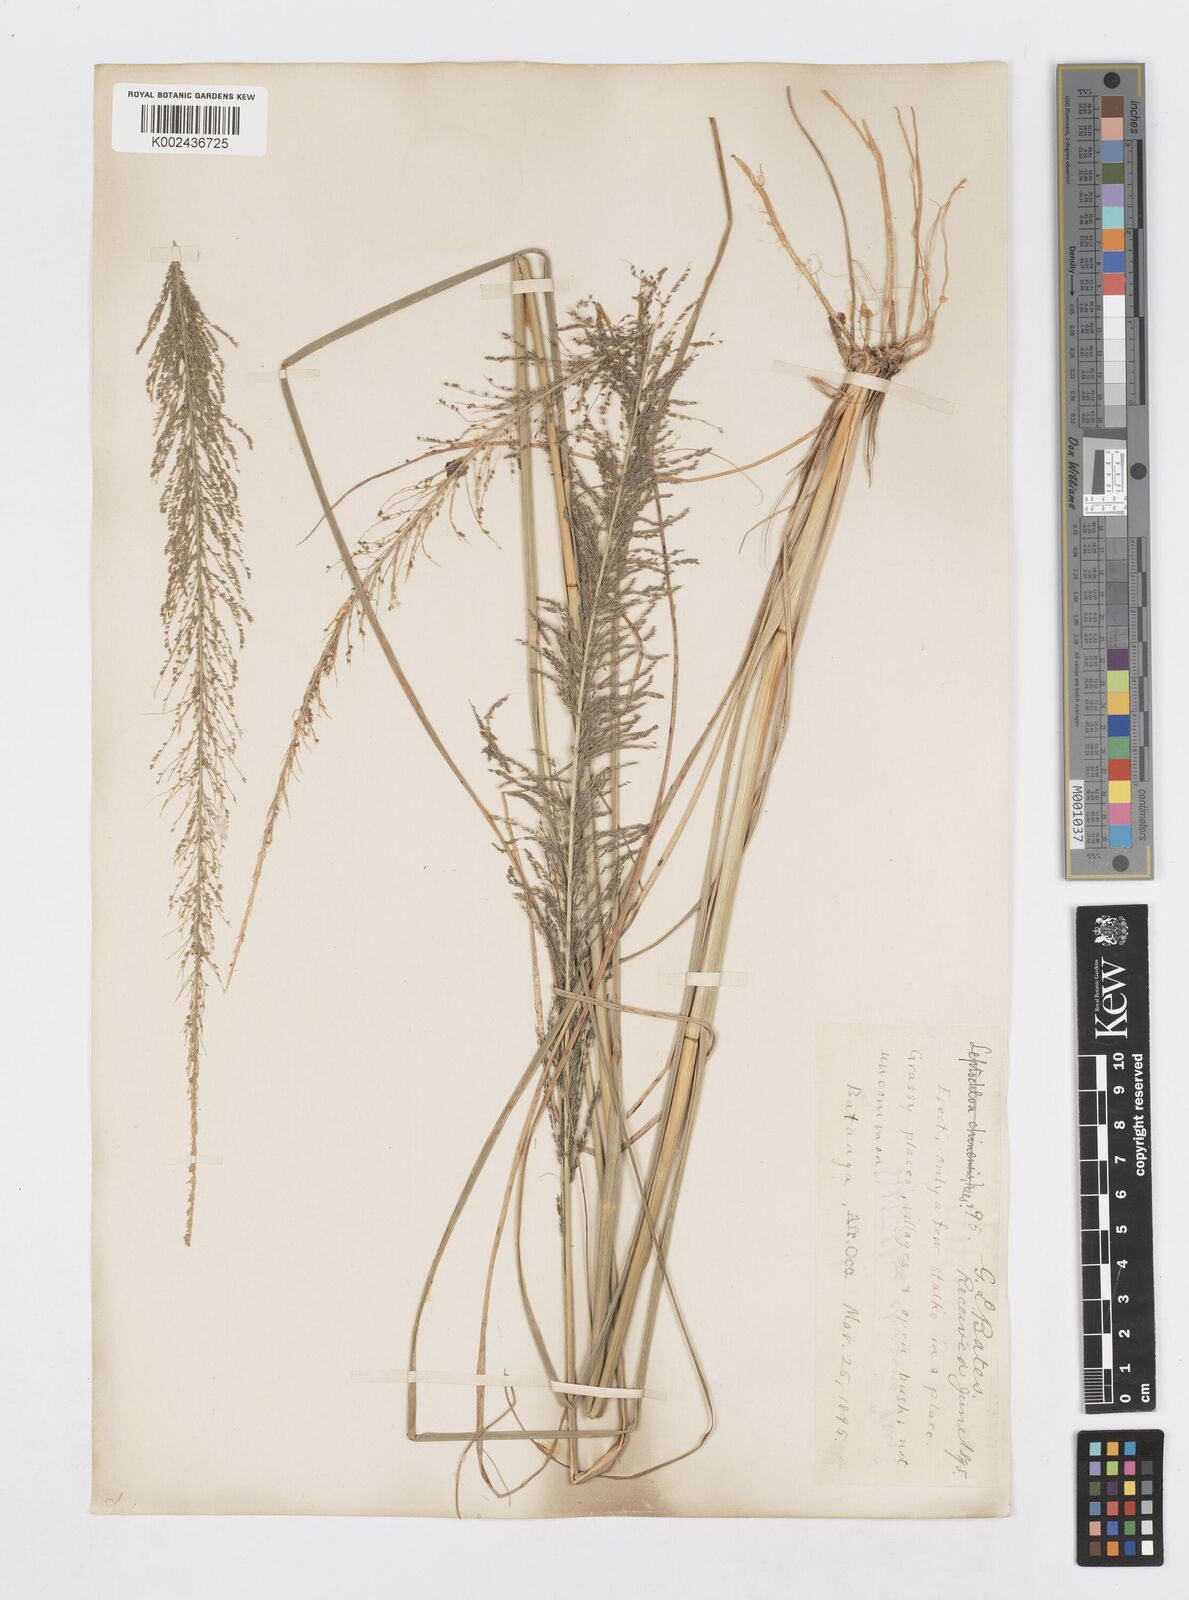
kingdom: Plantae
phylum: Tracheophyta
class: Liliopsida
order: Poales
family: Poaceae
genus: Sporobolus
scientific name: Sporobolus pyramidalis
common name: West indian dropseed
